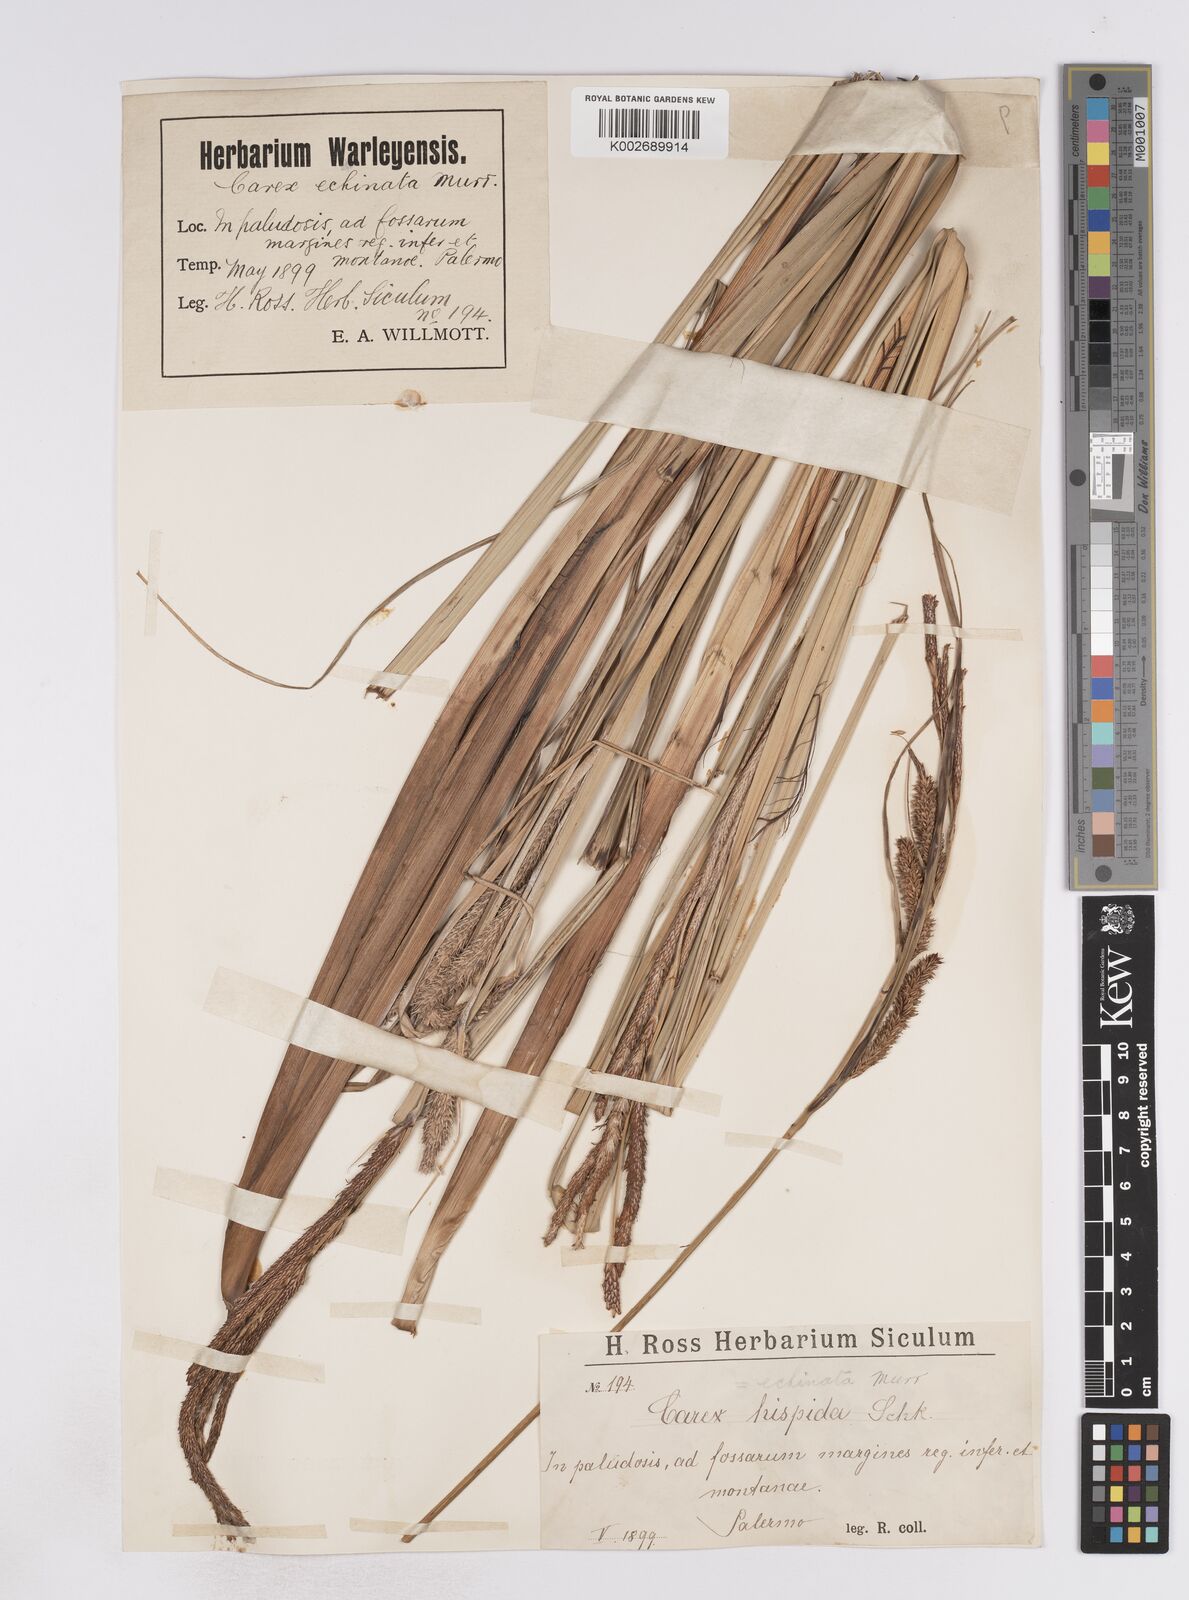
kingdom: Plantae
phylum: Tracheophyta
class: Liliopsida
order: Poales
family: Cyperaceae
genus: Carex
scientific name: Carex hispida
